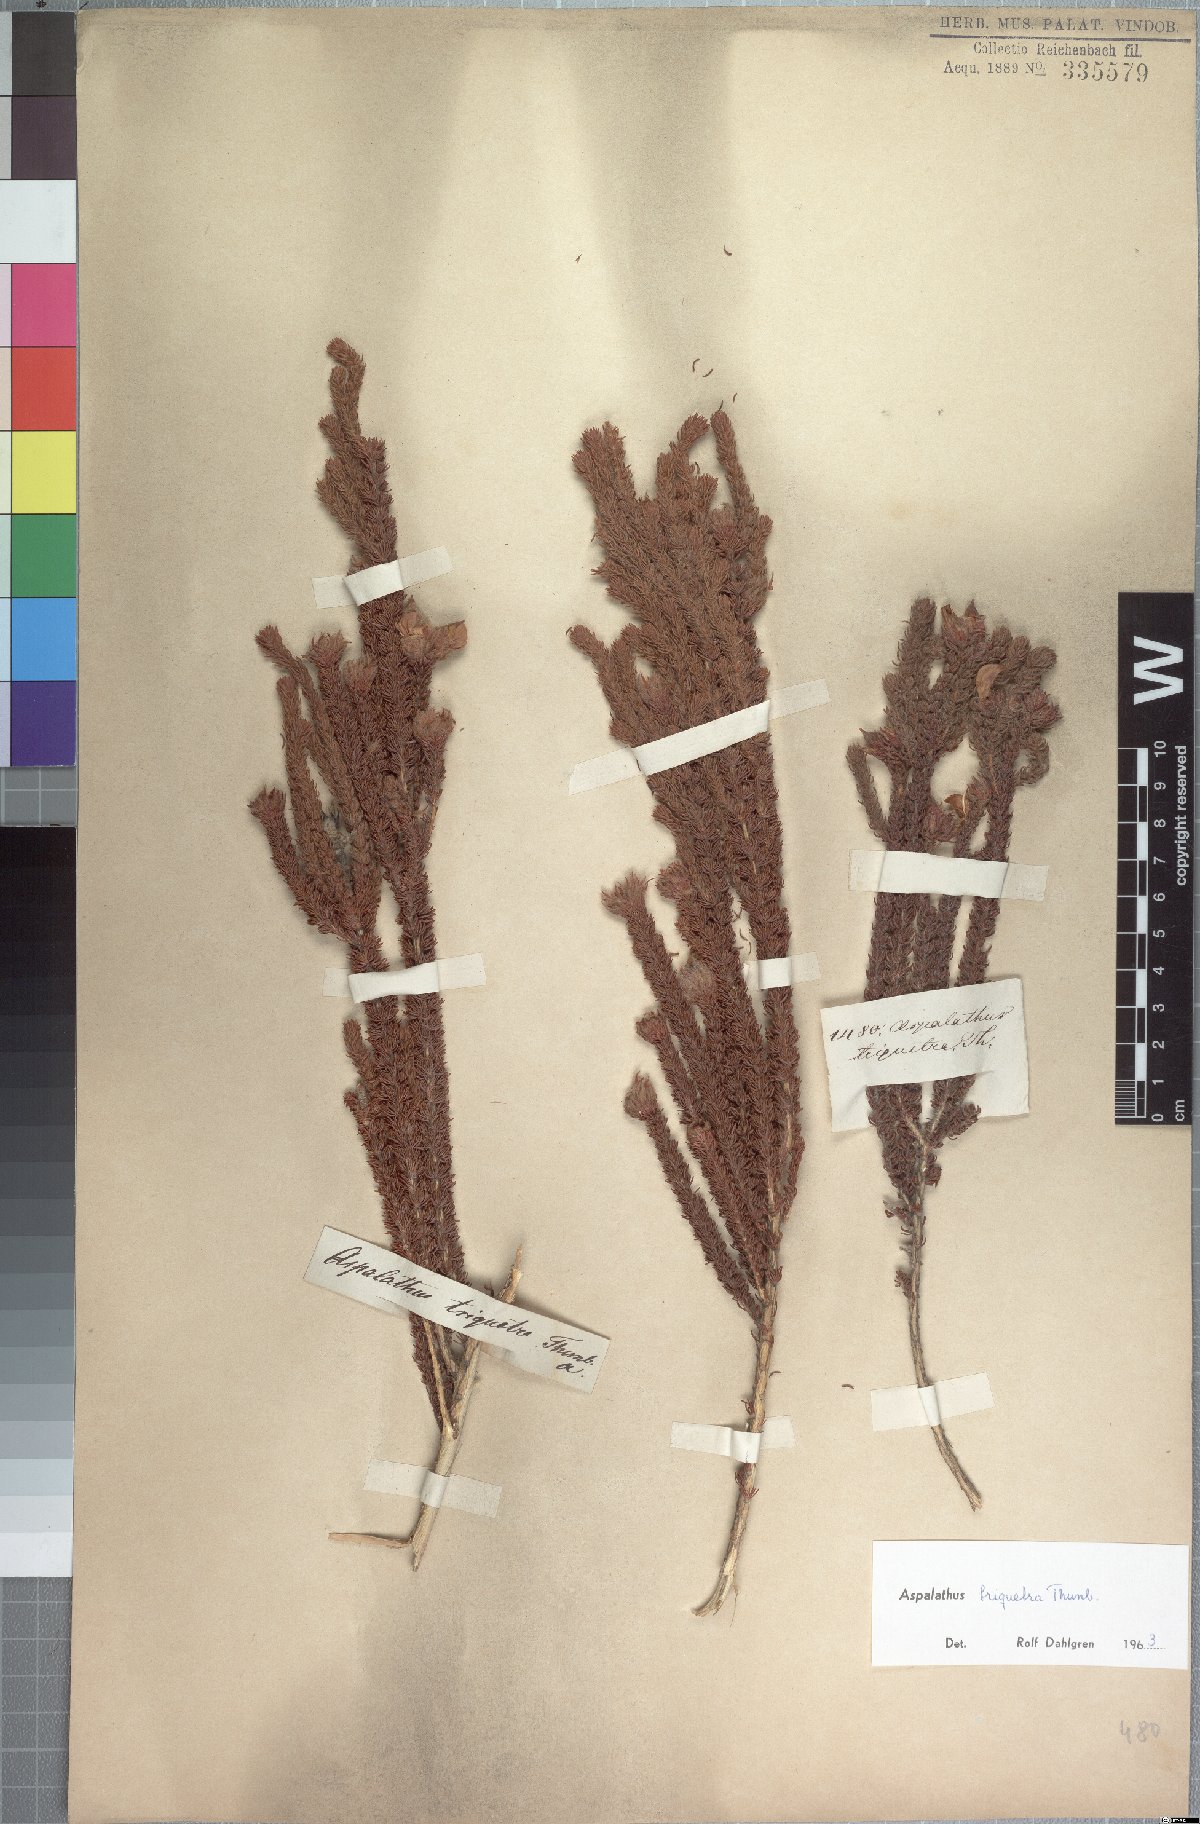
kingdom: Plantae
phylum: Tracheophyta
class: Magnoliopsida
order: Fabales
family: Fabaceae
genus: Aspalathus
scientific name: Aspalathus triquetra
